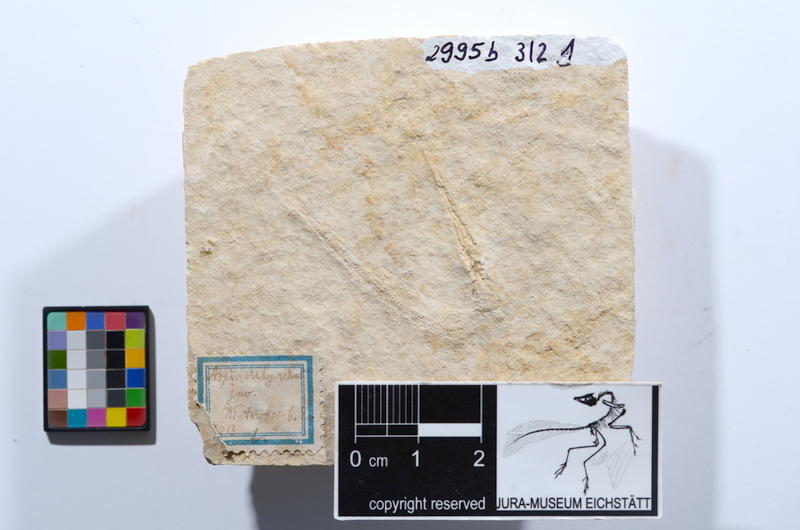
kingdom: Animalia
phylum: Chordata
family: Aspidorhynchidae
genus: Belonostomus
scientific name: Belonostomus
